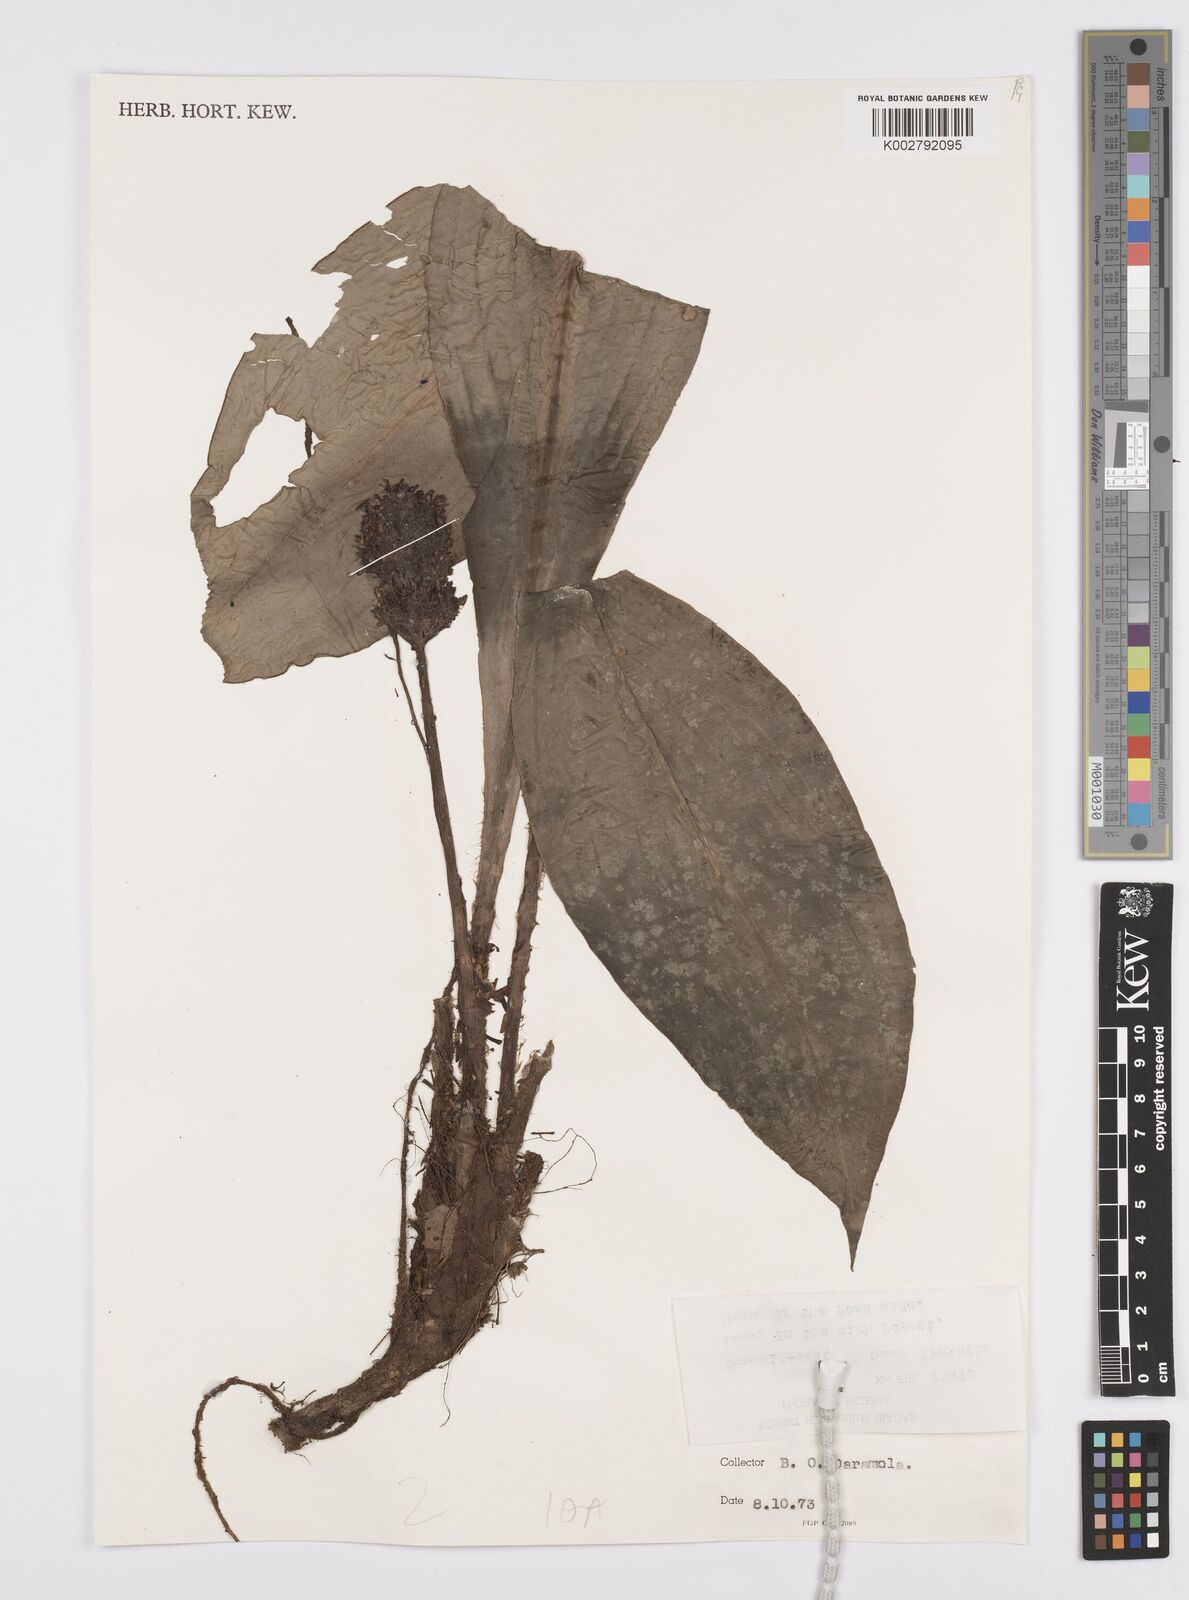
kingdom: Plantae
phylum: Tracheophyta
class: Liliopsida
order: Commelinales
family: Commelinaceae
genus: Palisota
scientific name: Palisota barteri
